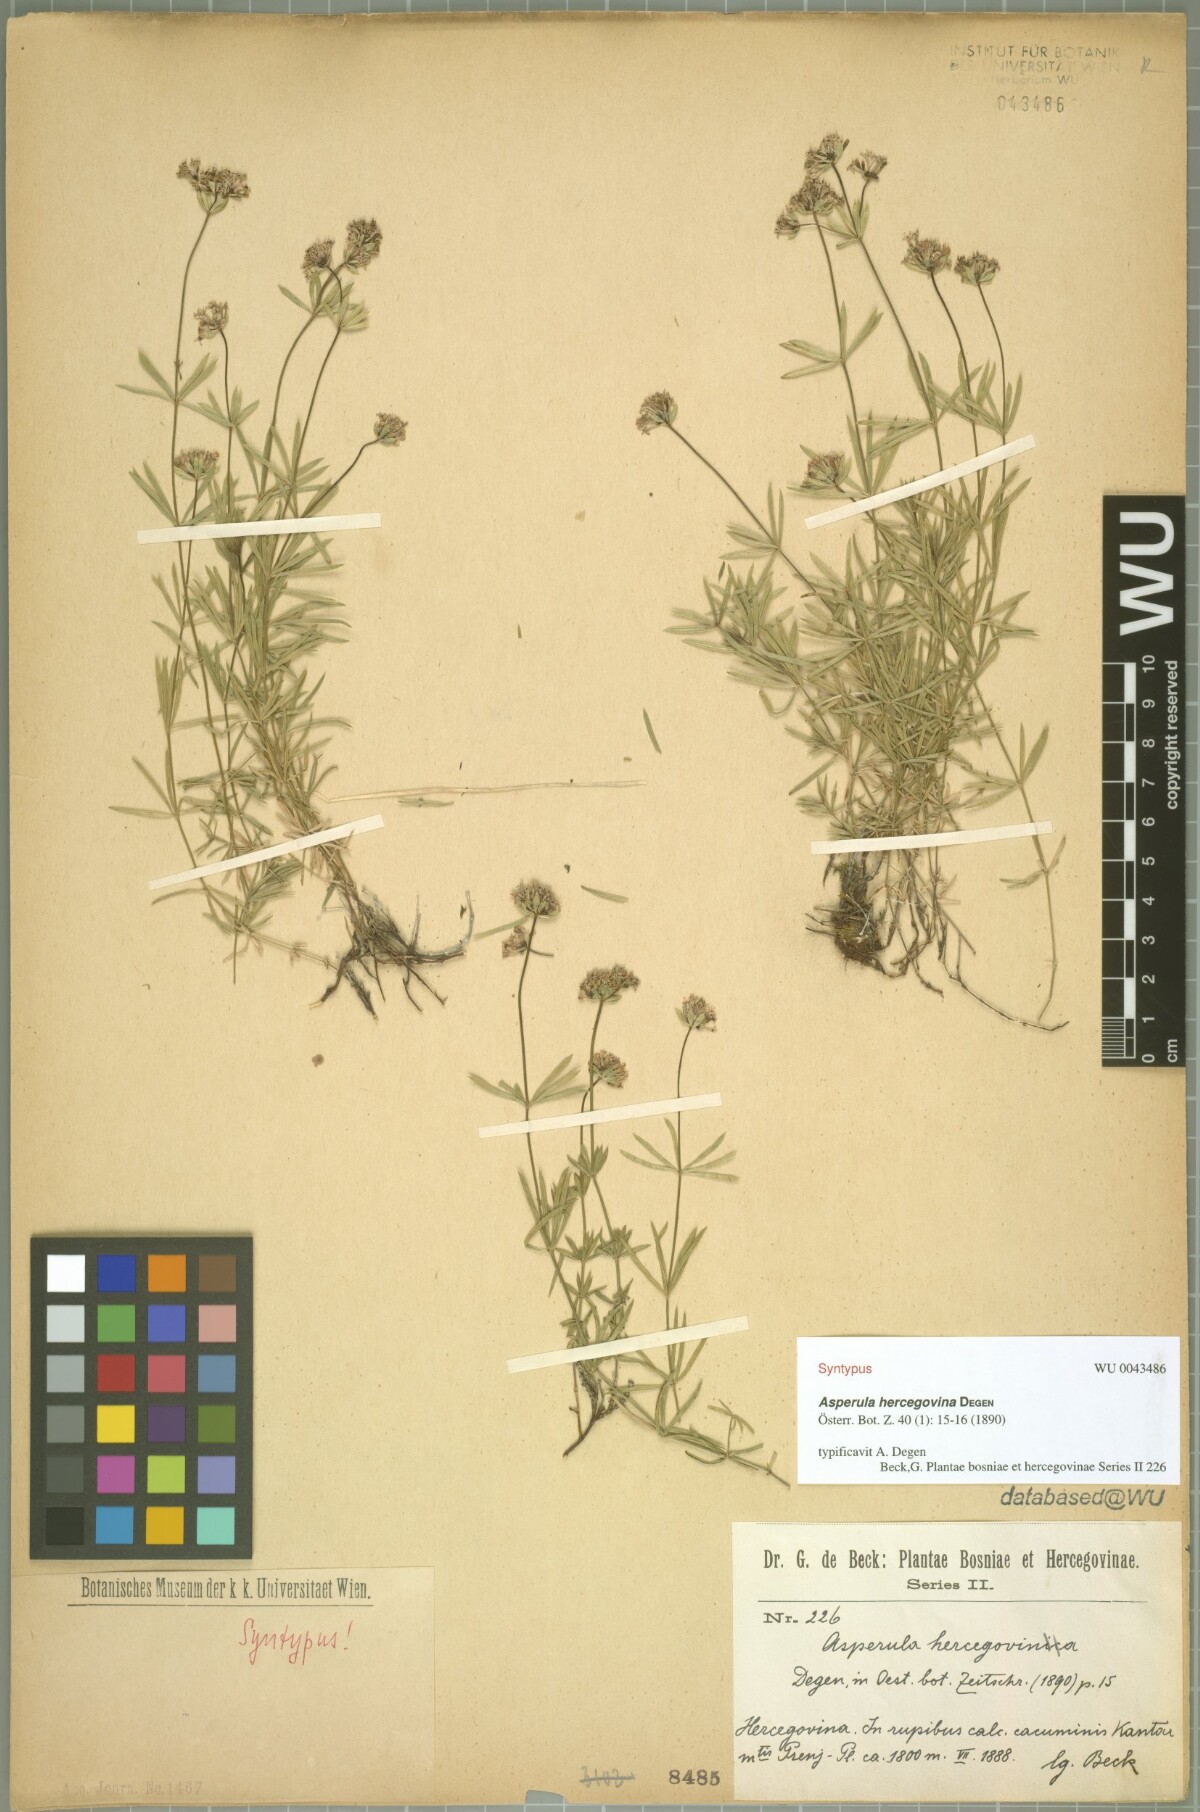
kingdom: Plantae
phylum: Tracheophyta
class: Magnoliopsida
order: Gentianales
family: Rubiaceae
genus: Hexaphylla
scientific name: Hexaphylla hercegovina
